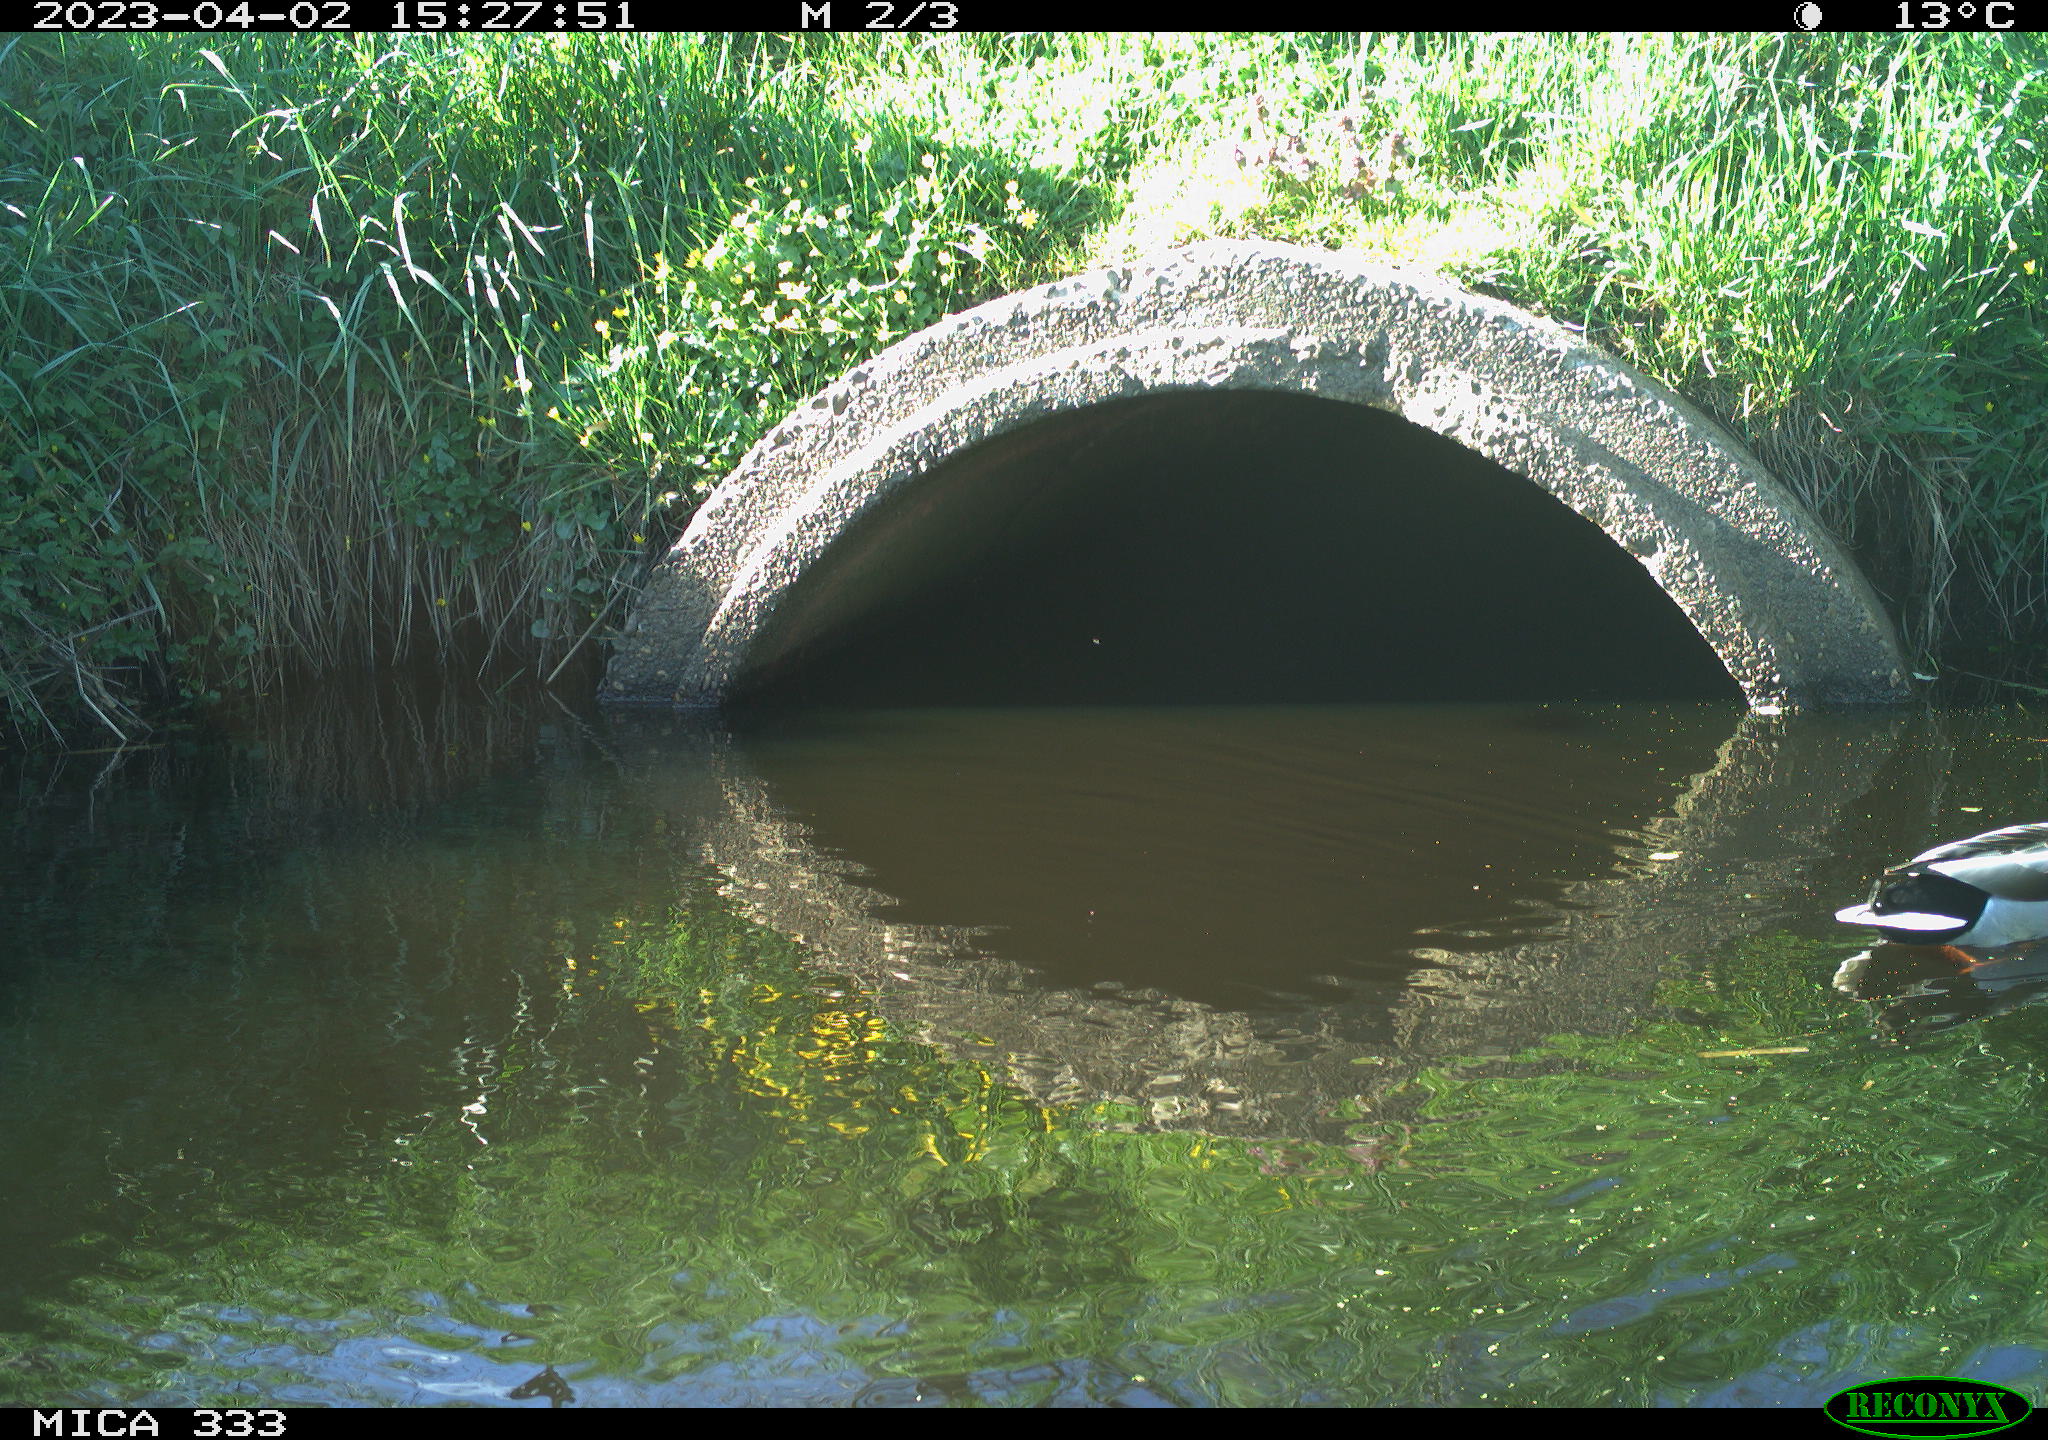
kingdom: Animalia
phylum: Chordata
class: Aves
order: Anseriformes
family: Anatidae
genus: Anas
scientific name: Anas
